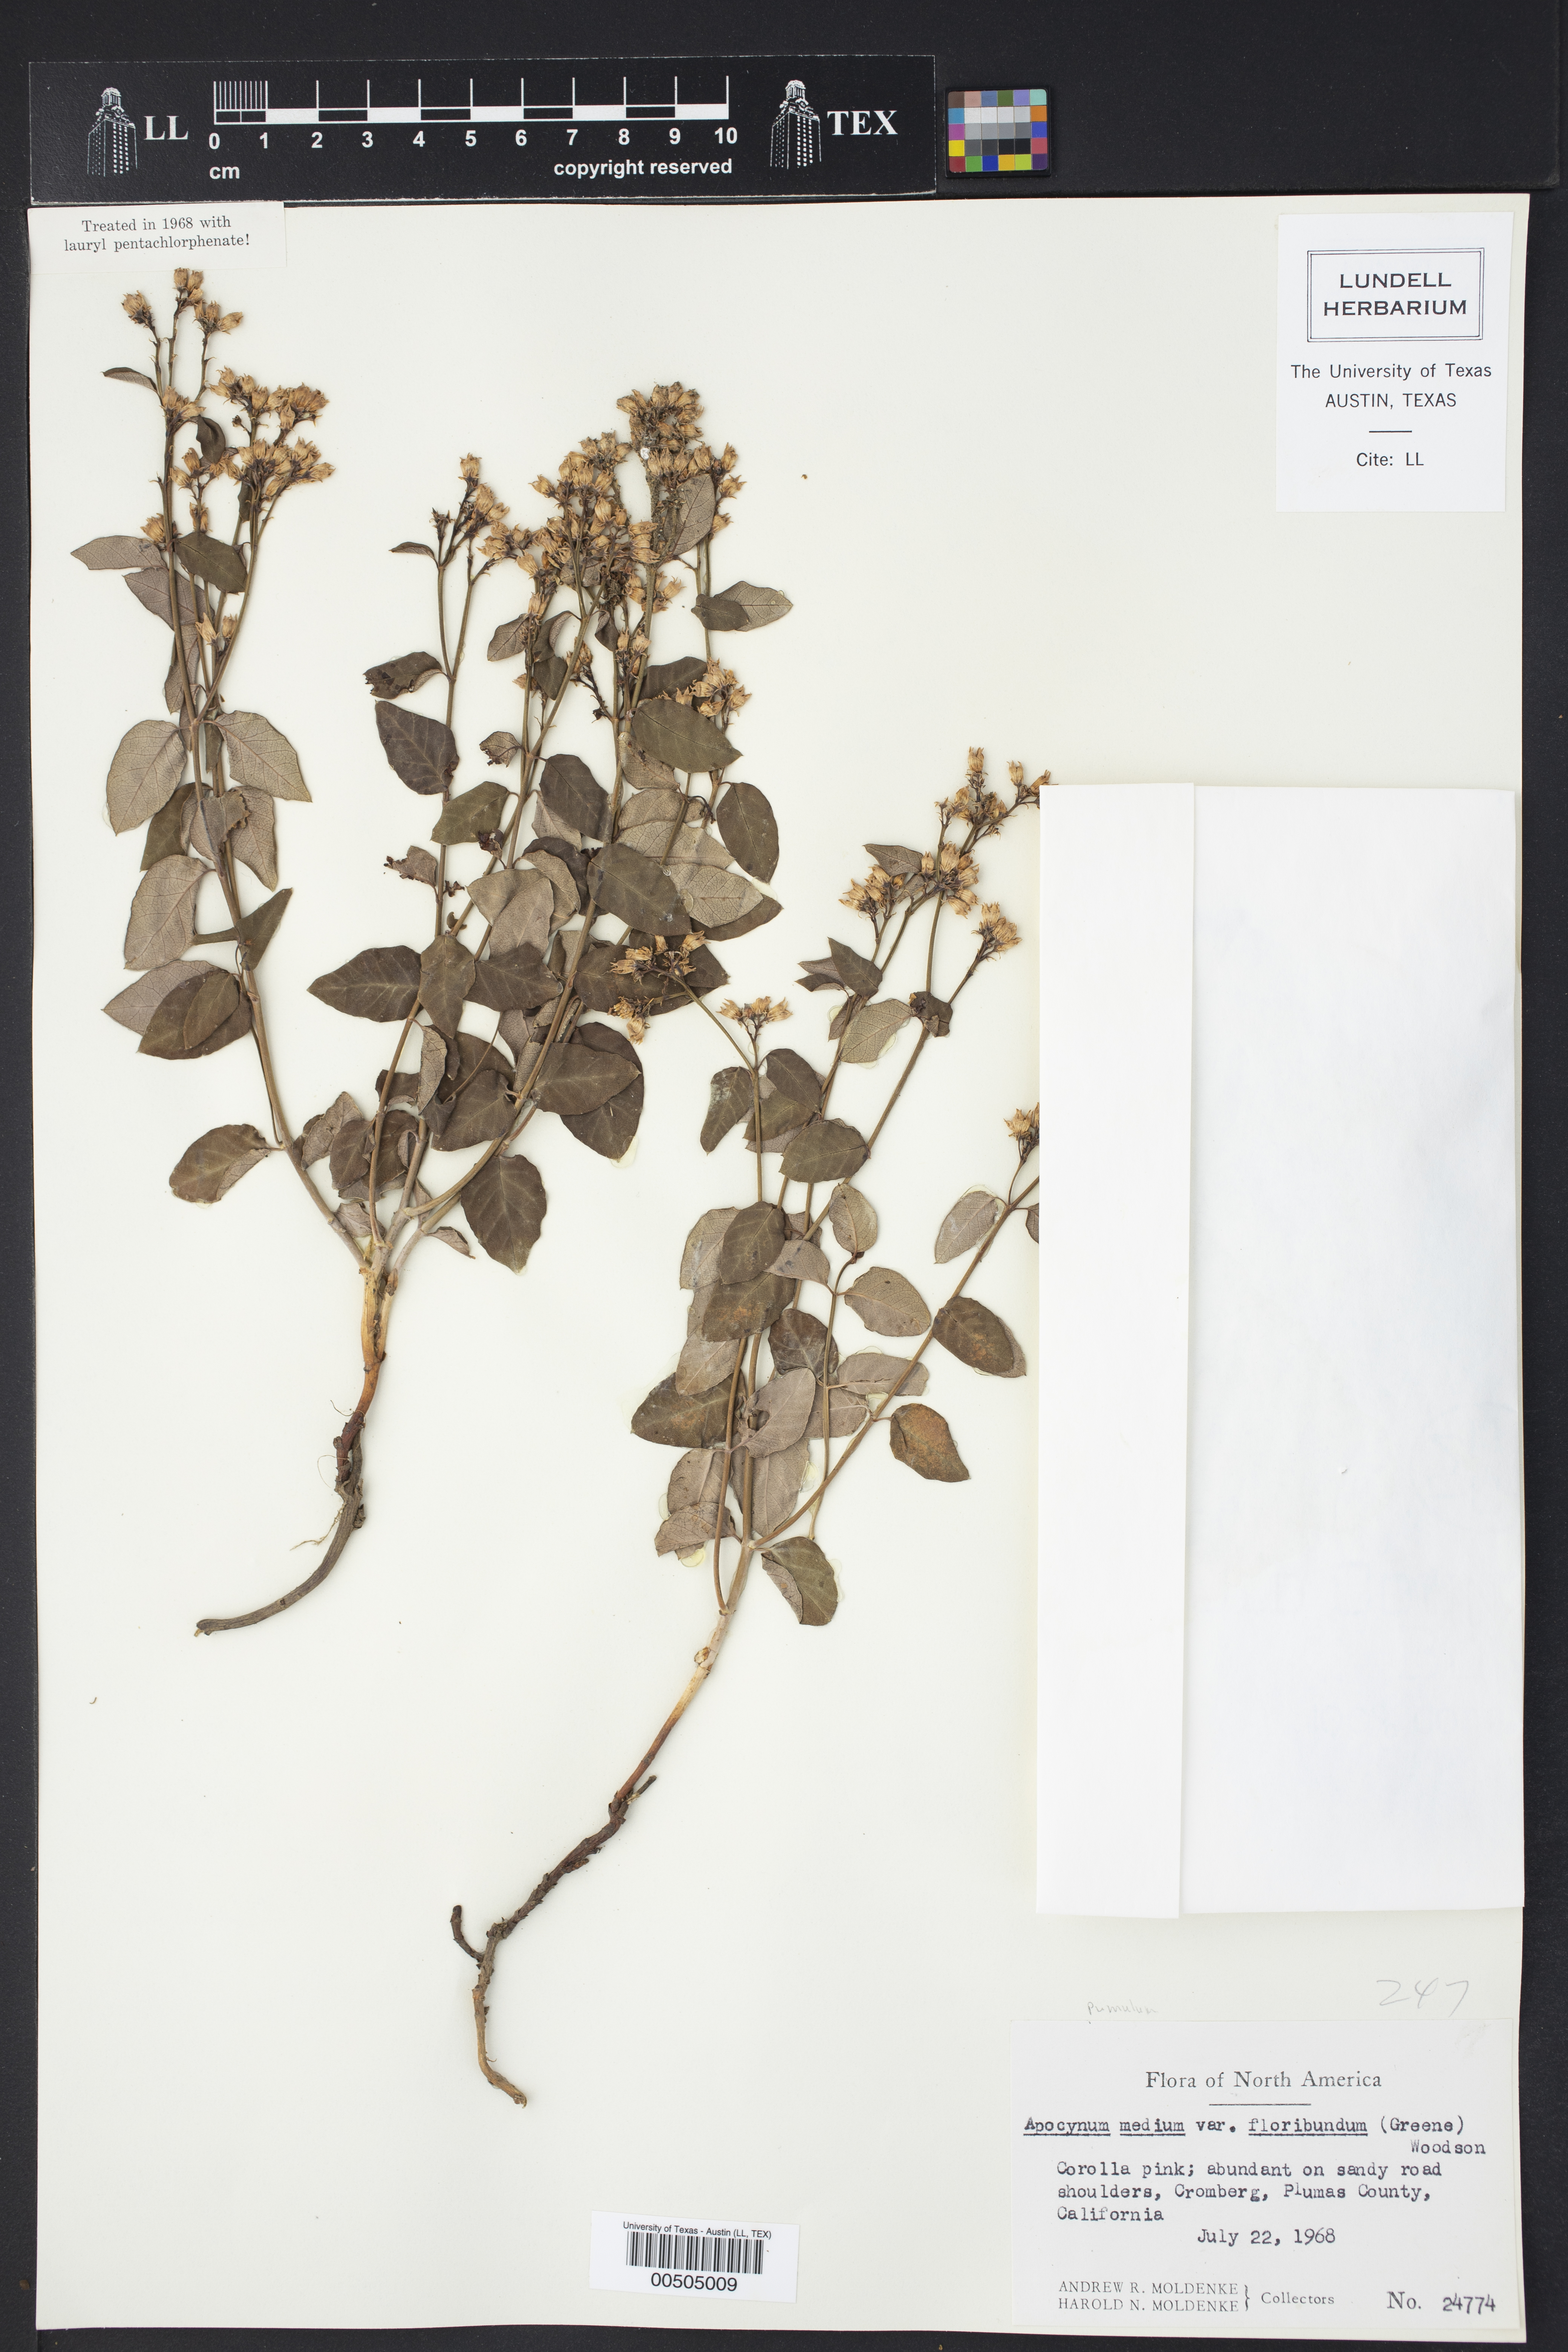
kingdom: Plantae
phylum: Tracheophyta
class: Magnoliopsida
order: Gentianales
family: Apocynaceae
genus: Apocynum
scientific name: Apocynum floribundum
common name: Hybrid dogbane
